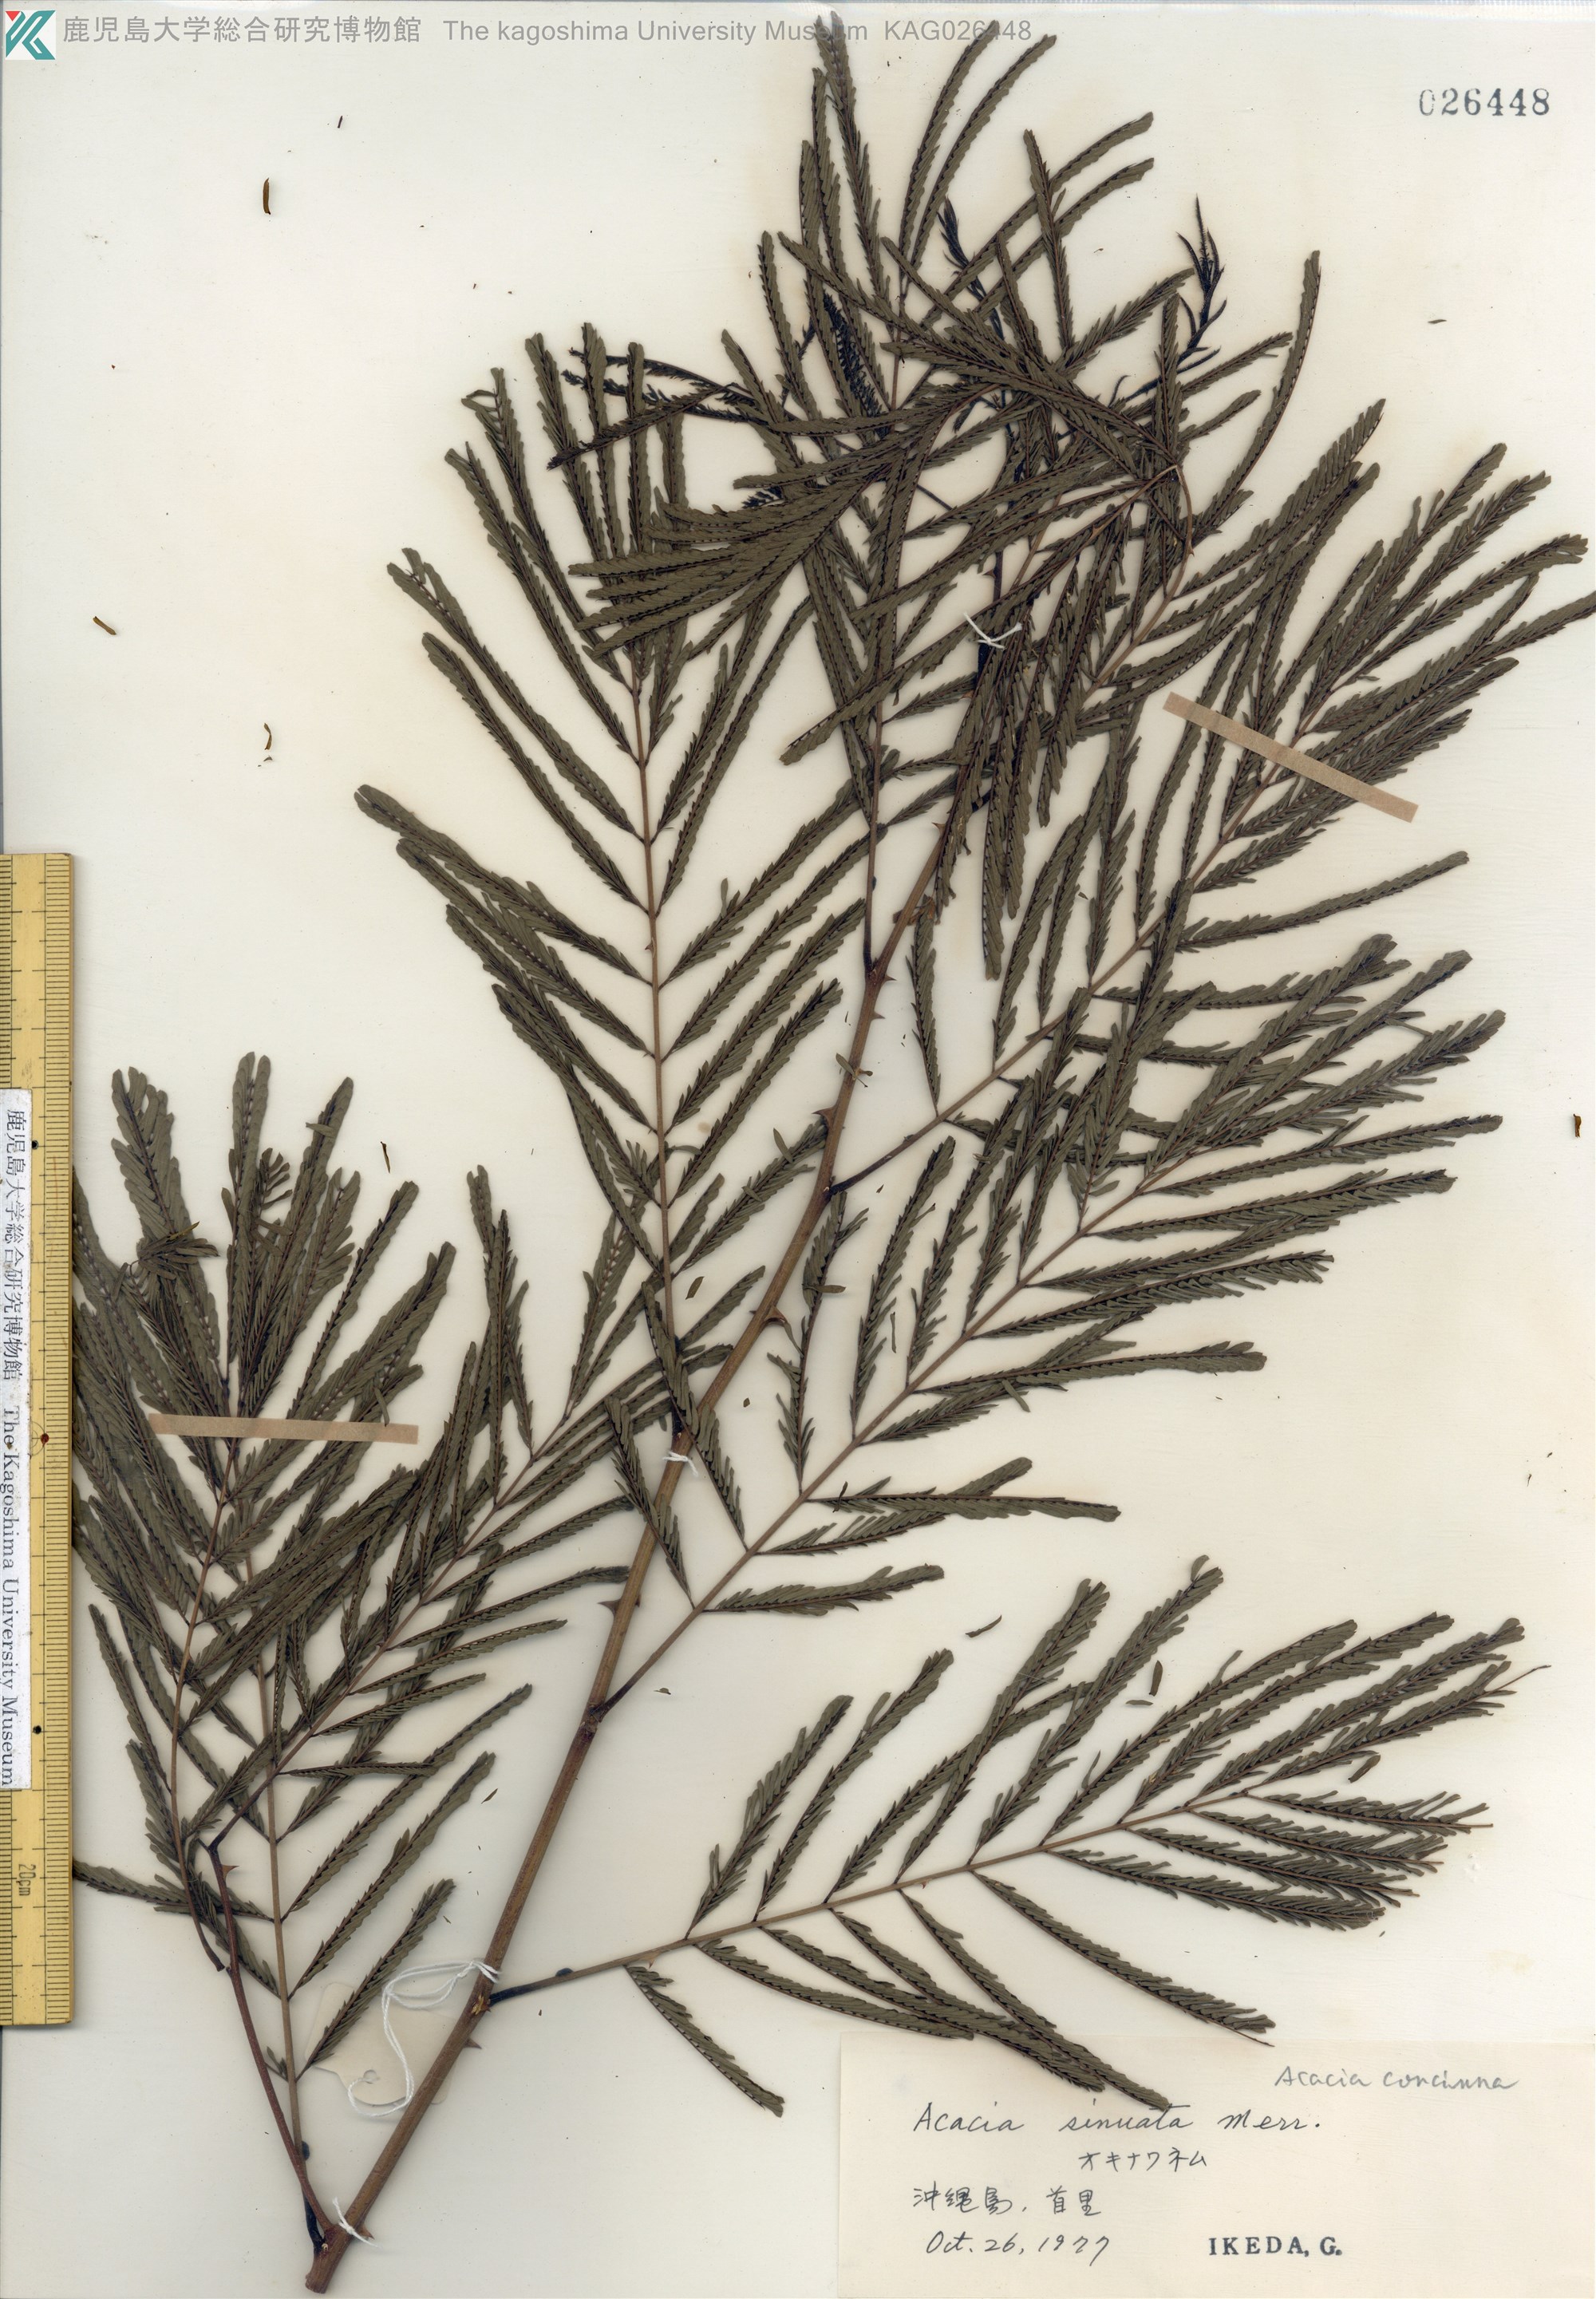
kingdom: Plantae
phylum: Tracheophyta
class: Magnoliopsida
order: Fabales
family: Fabaceae
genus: Senegalia
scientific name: Senegalia rugata
